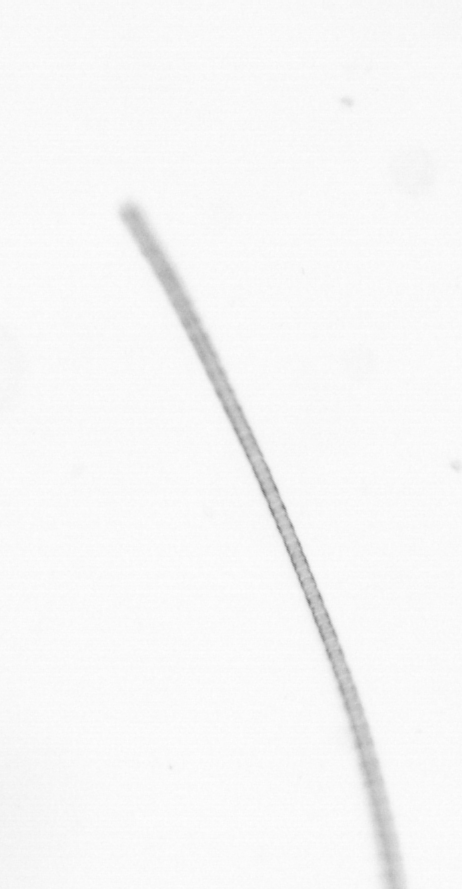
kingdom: Chromista
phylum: Ochrophyta
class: Bacillariophyceae
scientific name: Bacillariophyceae
